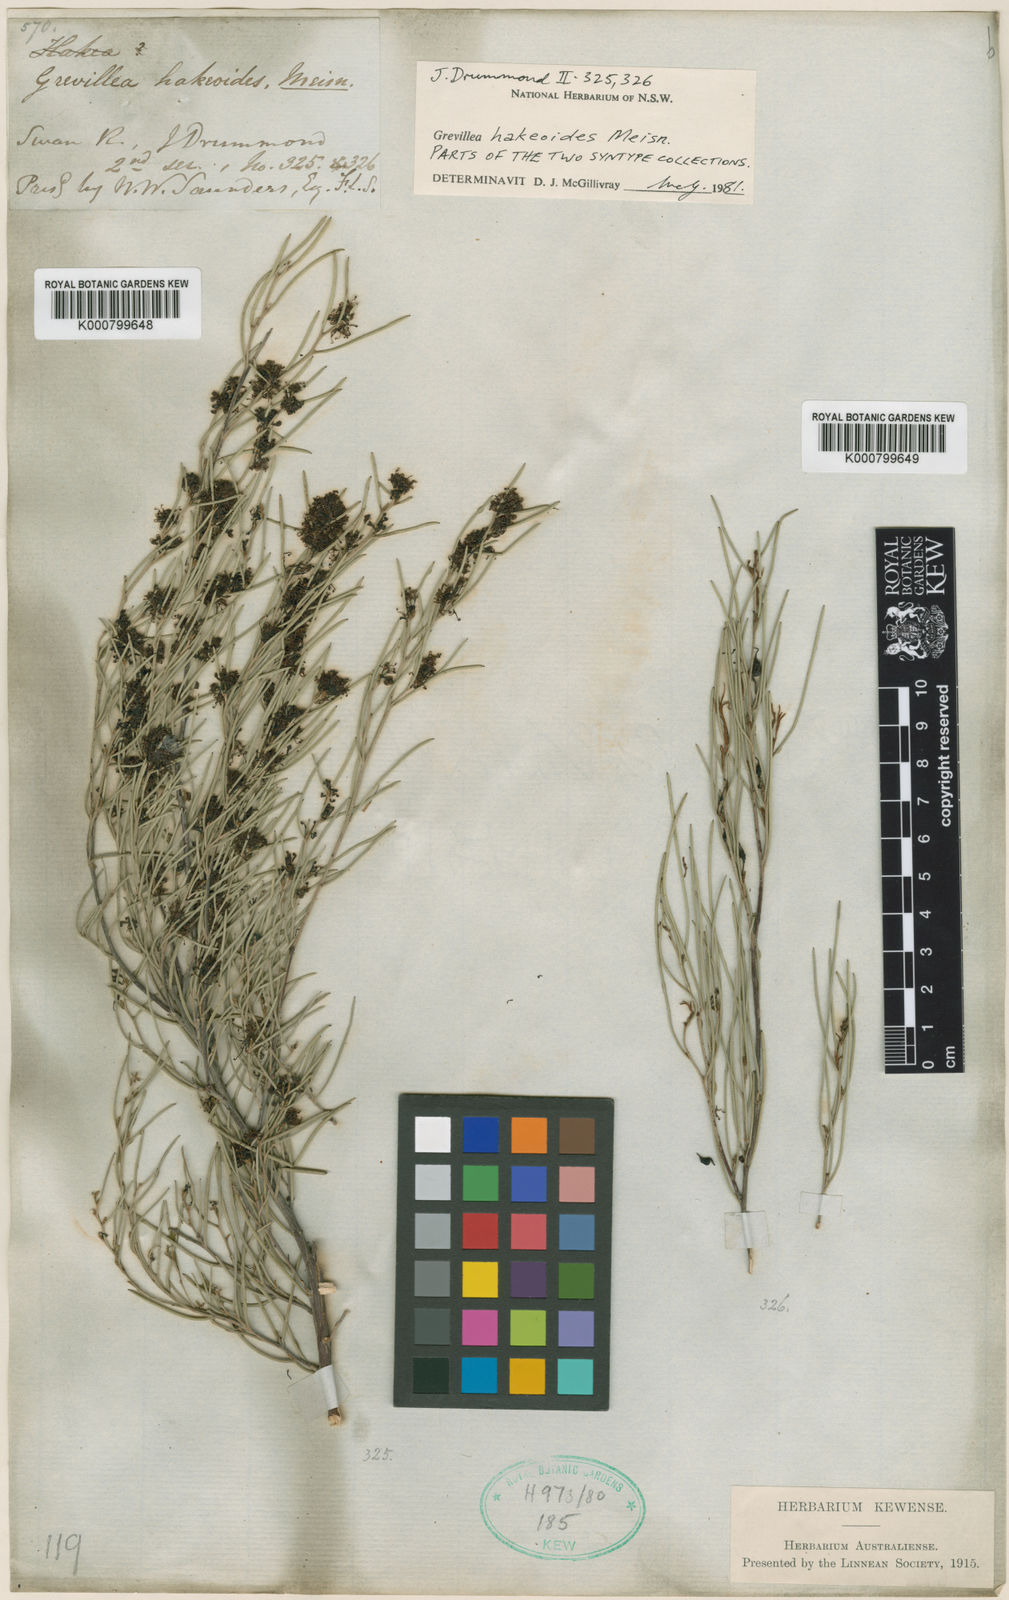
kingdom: Plantae
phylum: Tracheophyta
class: Magnoliopsida
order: Proteales
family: Proteaceae
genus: Grevillea
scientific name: Grevillea hakeoides
